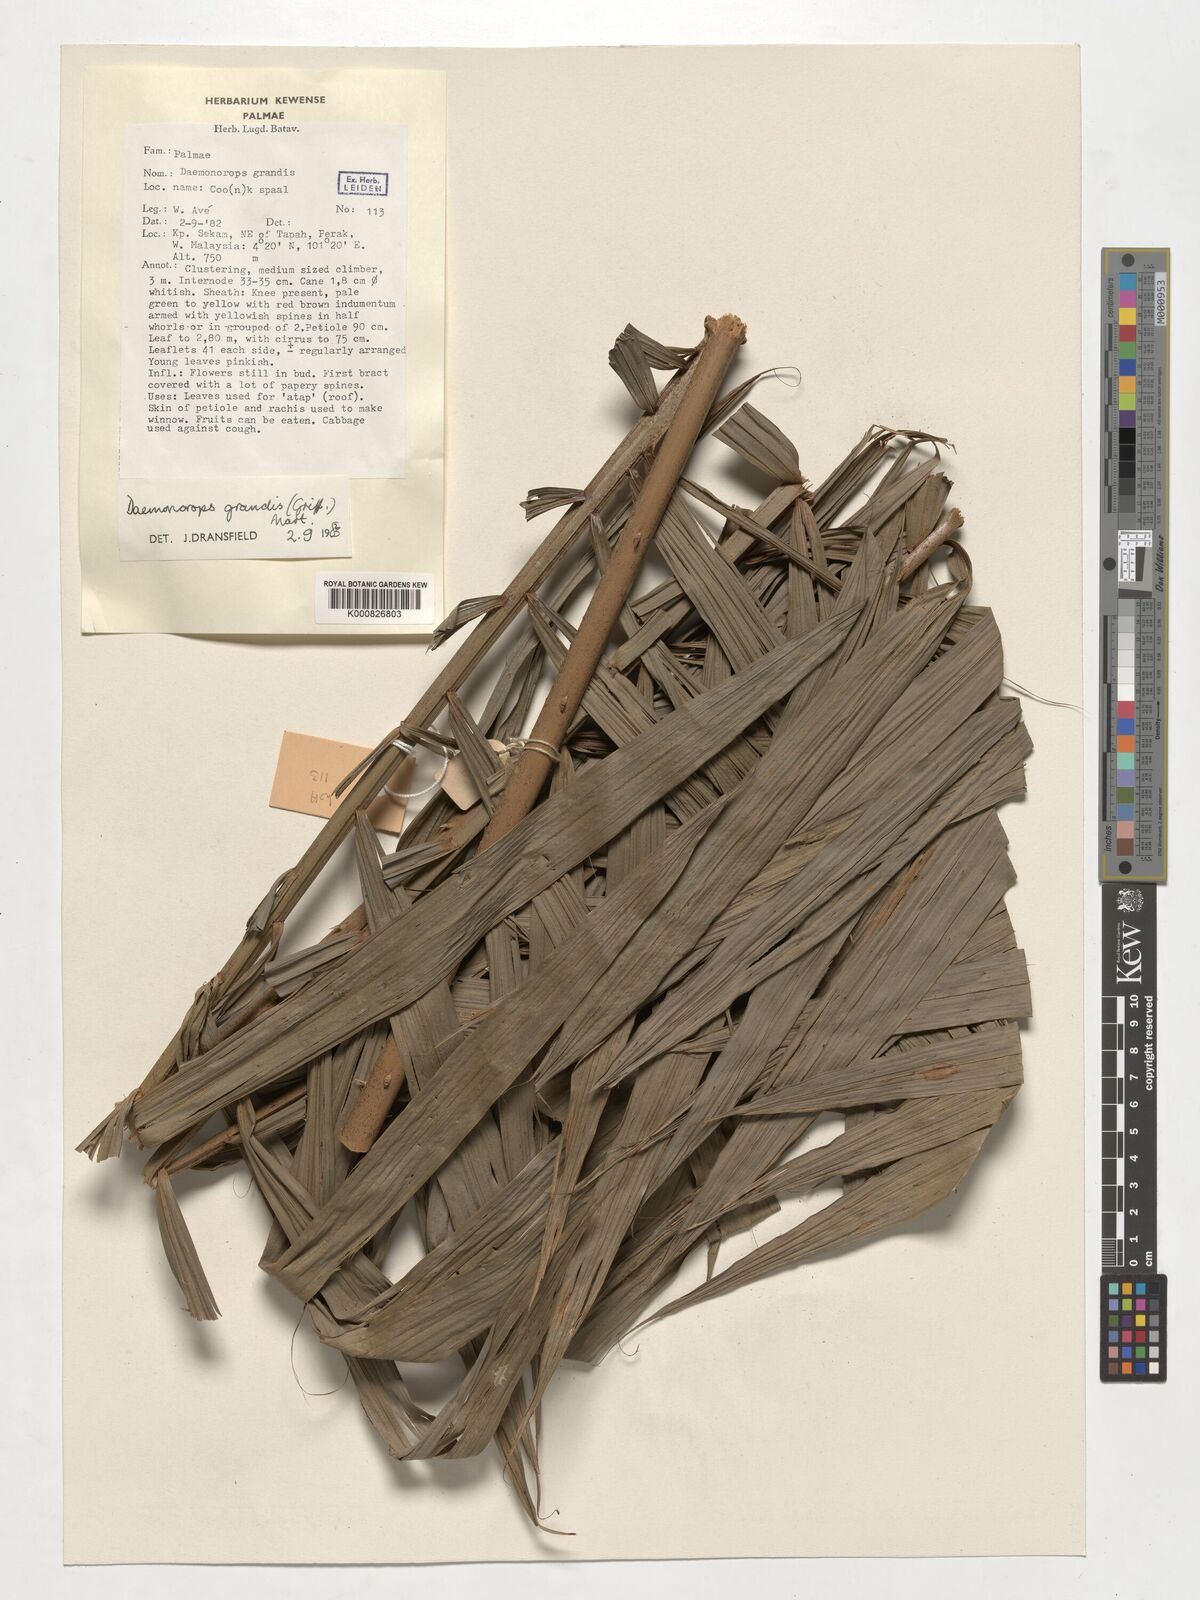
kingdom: Plantae
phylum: Tracheophyta
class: Liliopsida
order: Arecales
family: Arecaceae
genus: Calamus
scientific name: Calamus melanochaetes
